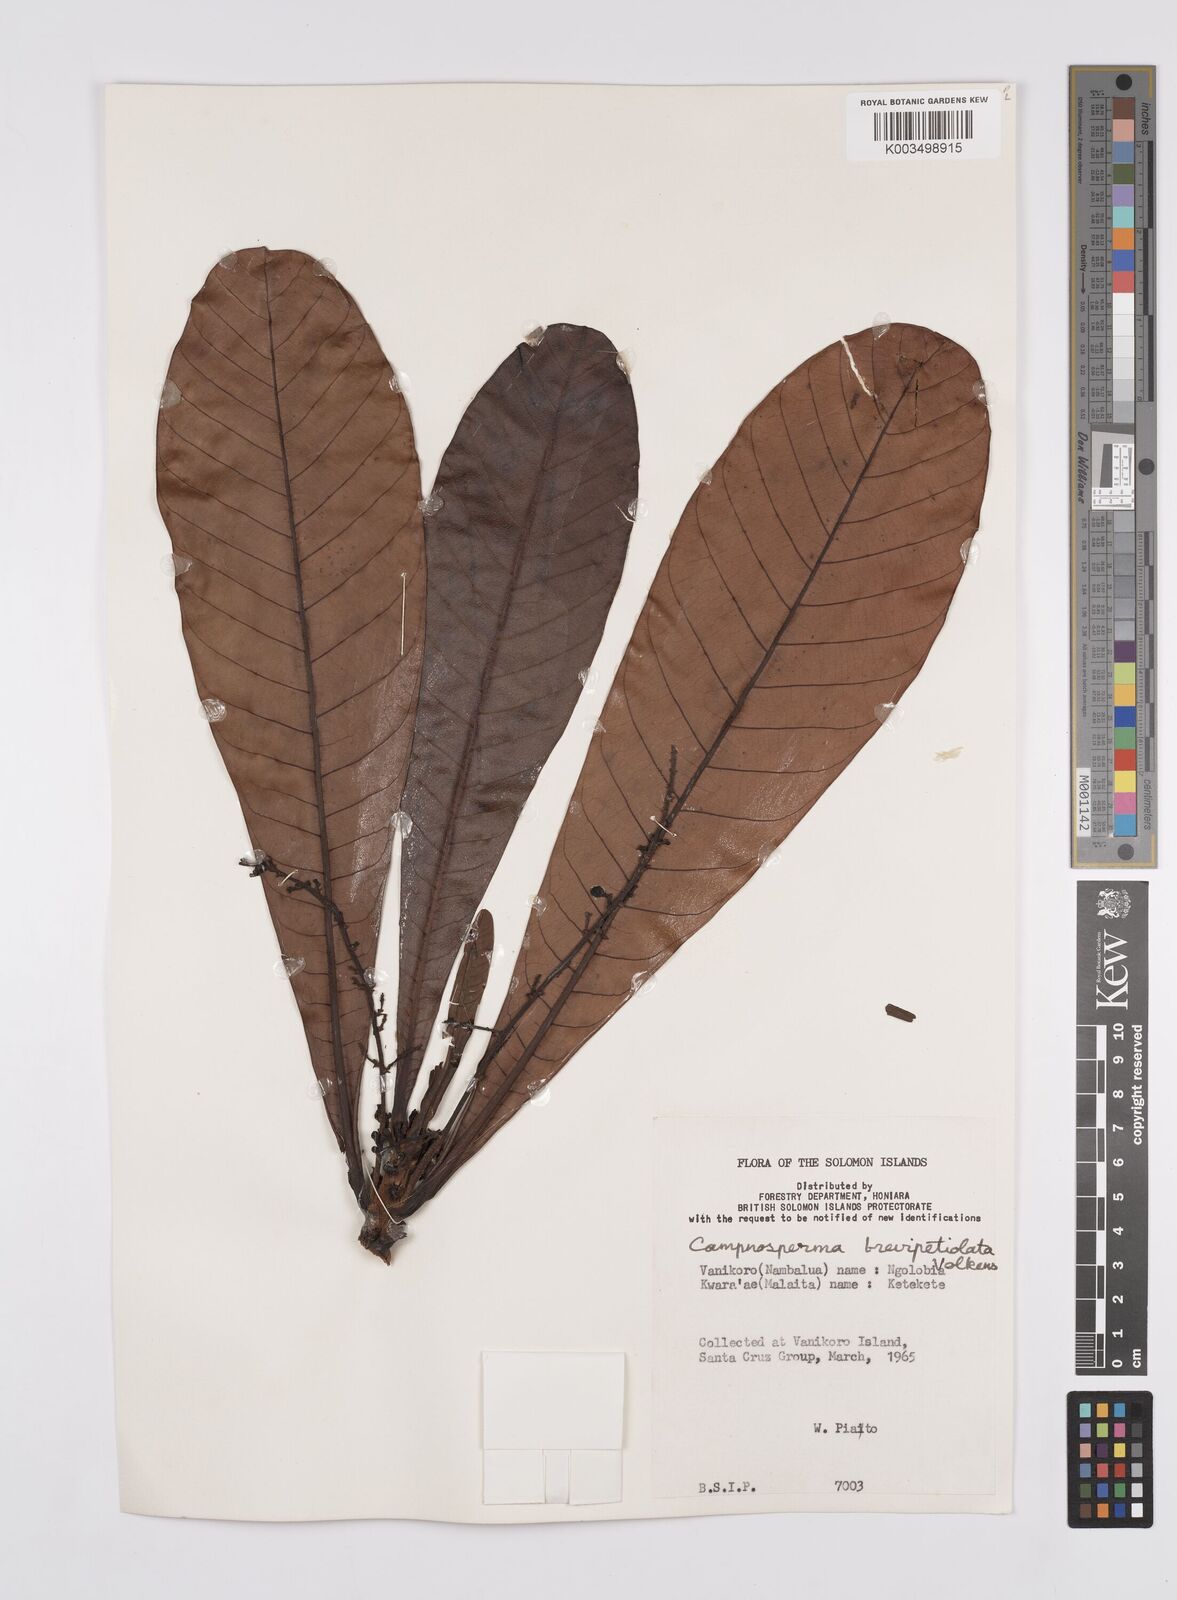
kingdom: Plantae
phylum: Tracheophyta
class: Magnoliopsida
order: Sapindales
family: Anacardiaceae
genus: Campnosperma
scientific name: Campnosperma brevipetiolatum
